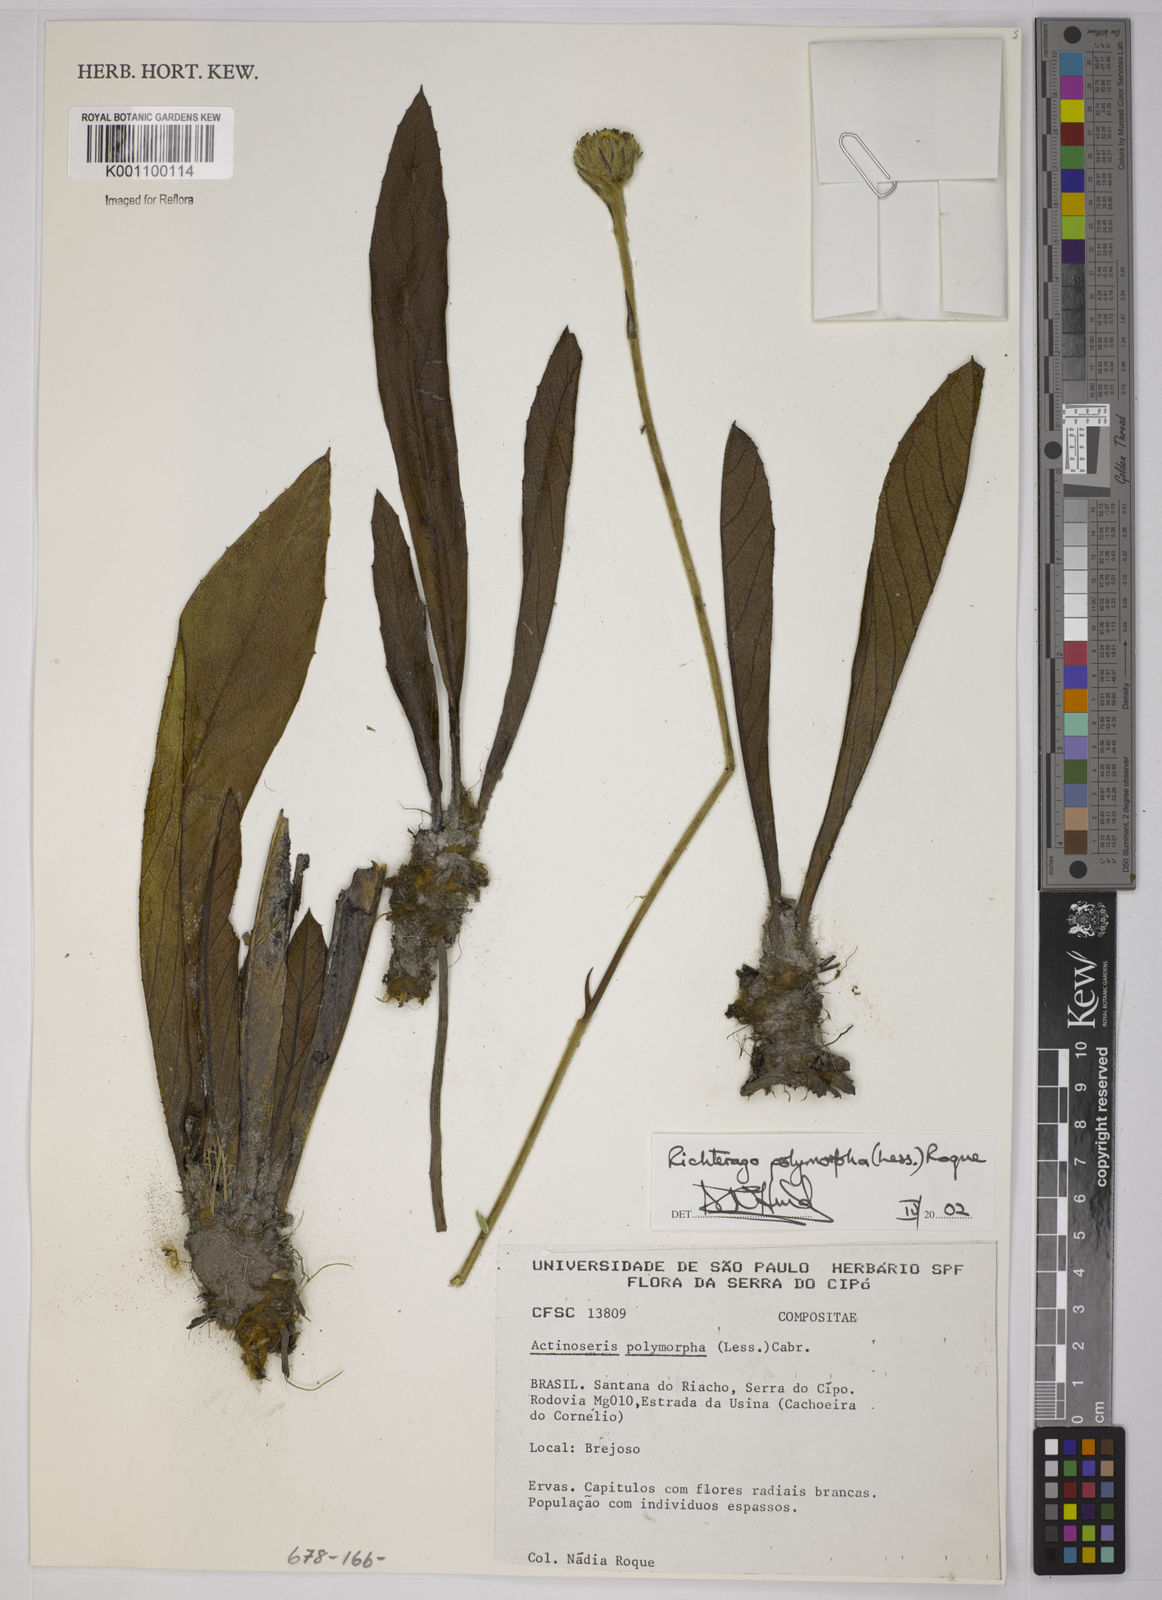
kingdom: Plantae
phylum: Tracheophyta
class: Magnoliopsida
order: Asterales
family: Asteraceae
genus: Richterago
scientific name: Richterago polymorpha
